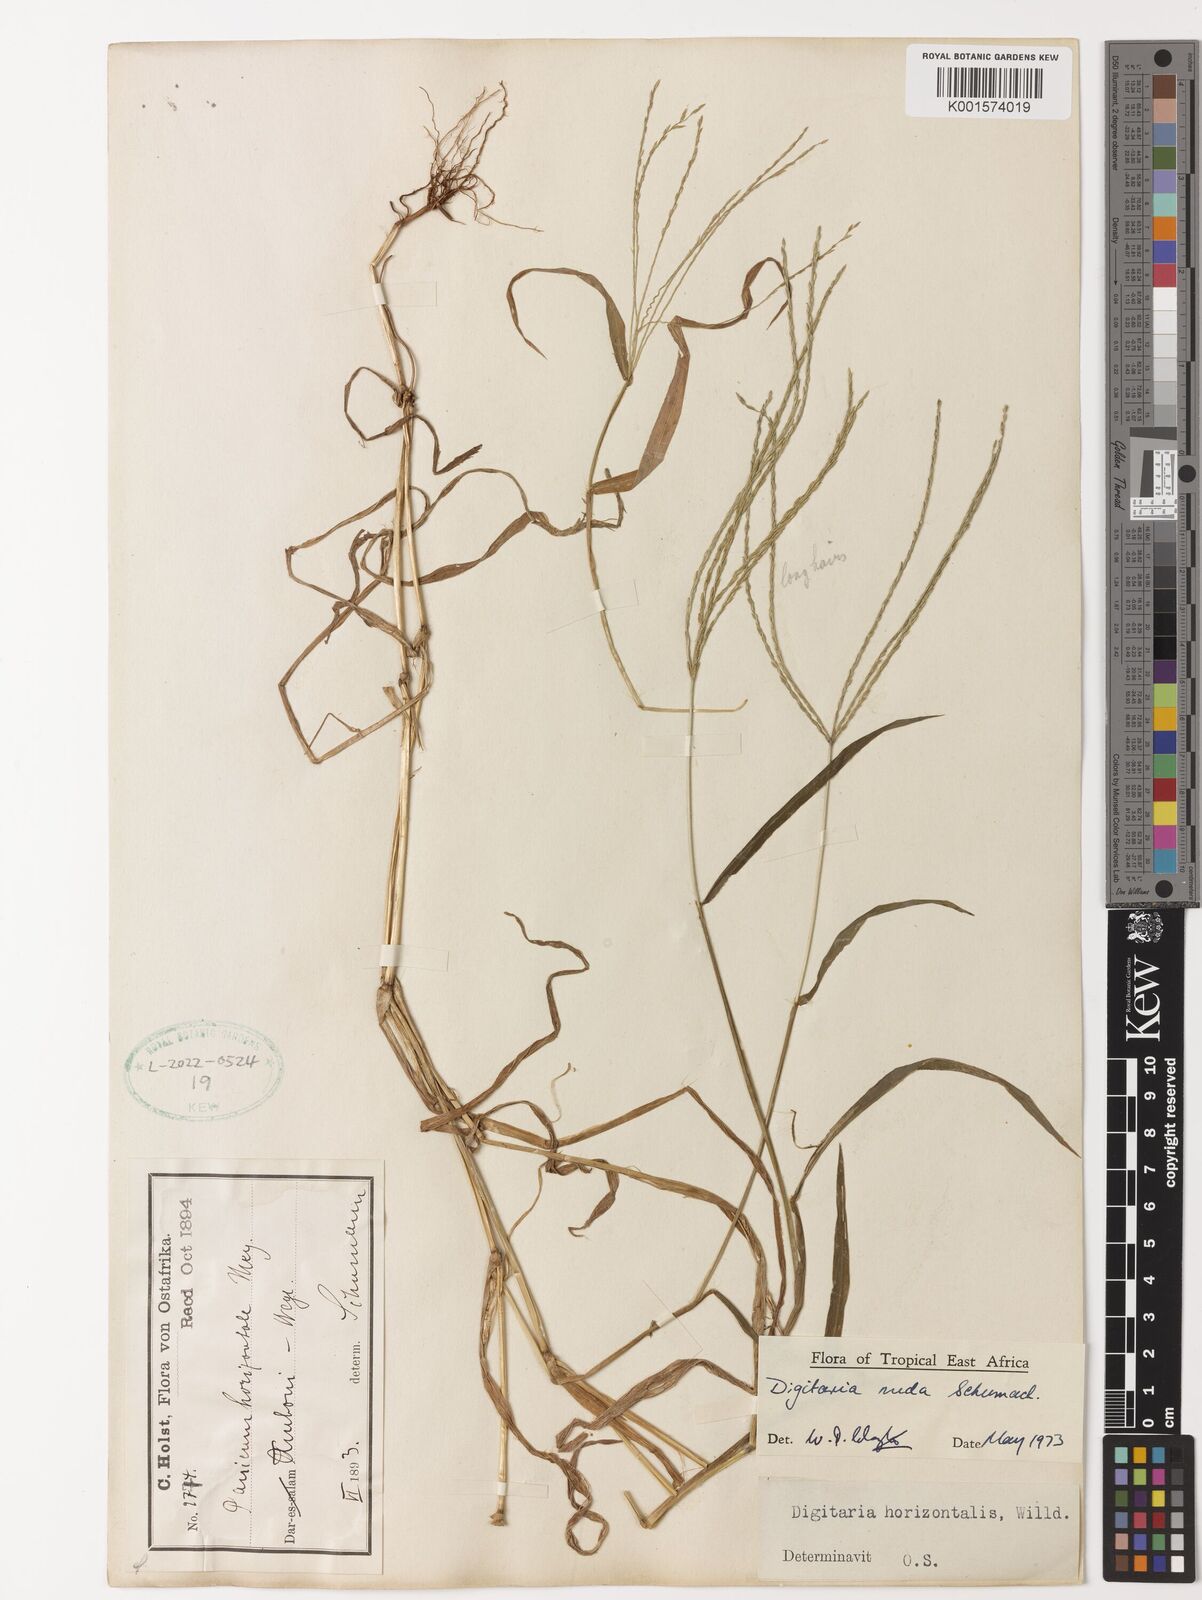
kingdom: Plantae
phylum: Tracheophyta
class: Liliopsida
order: Poales
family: Poaceae
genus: Digitaria
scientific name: Digitaria nuda
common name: Naked crabgrass
